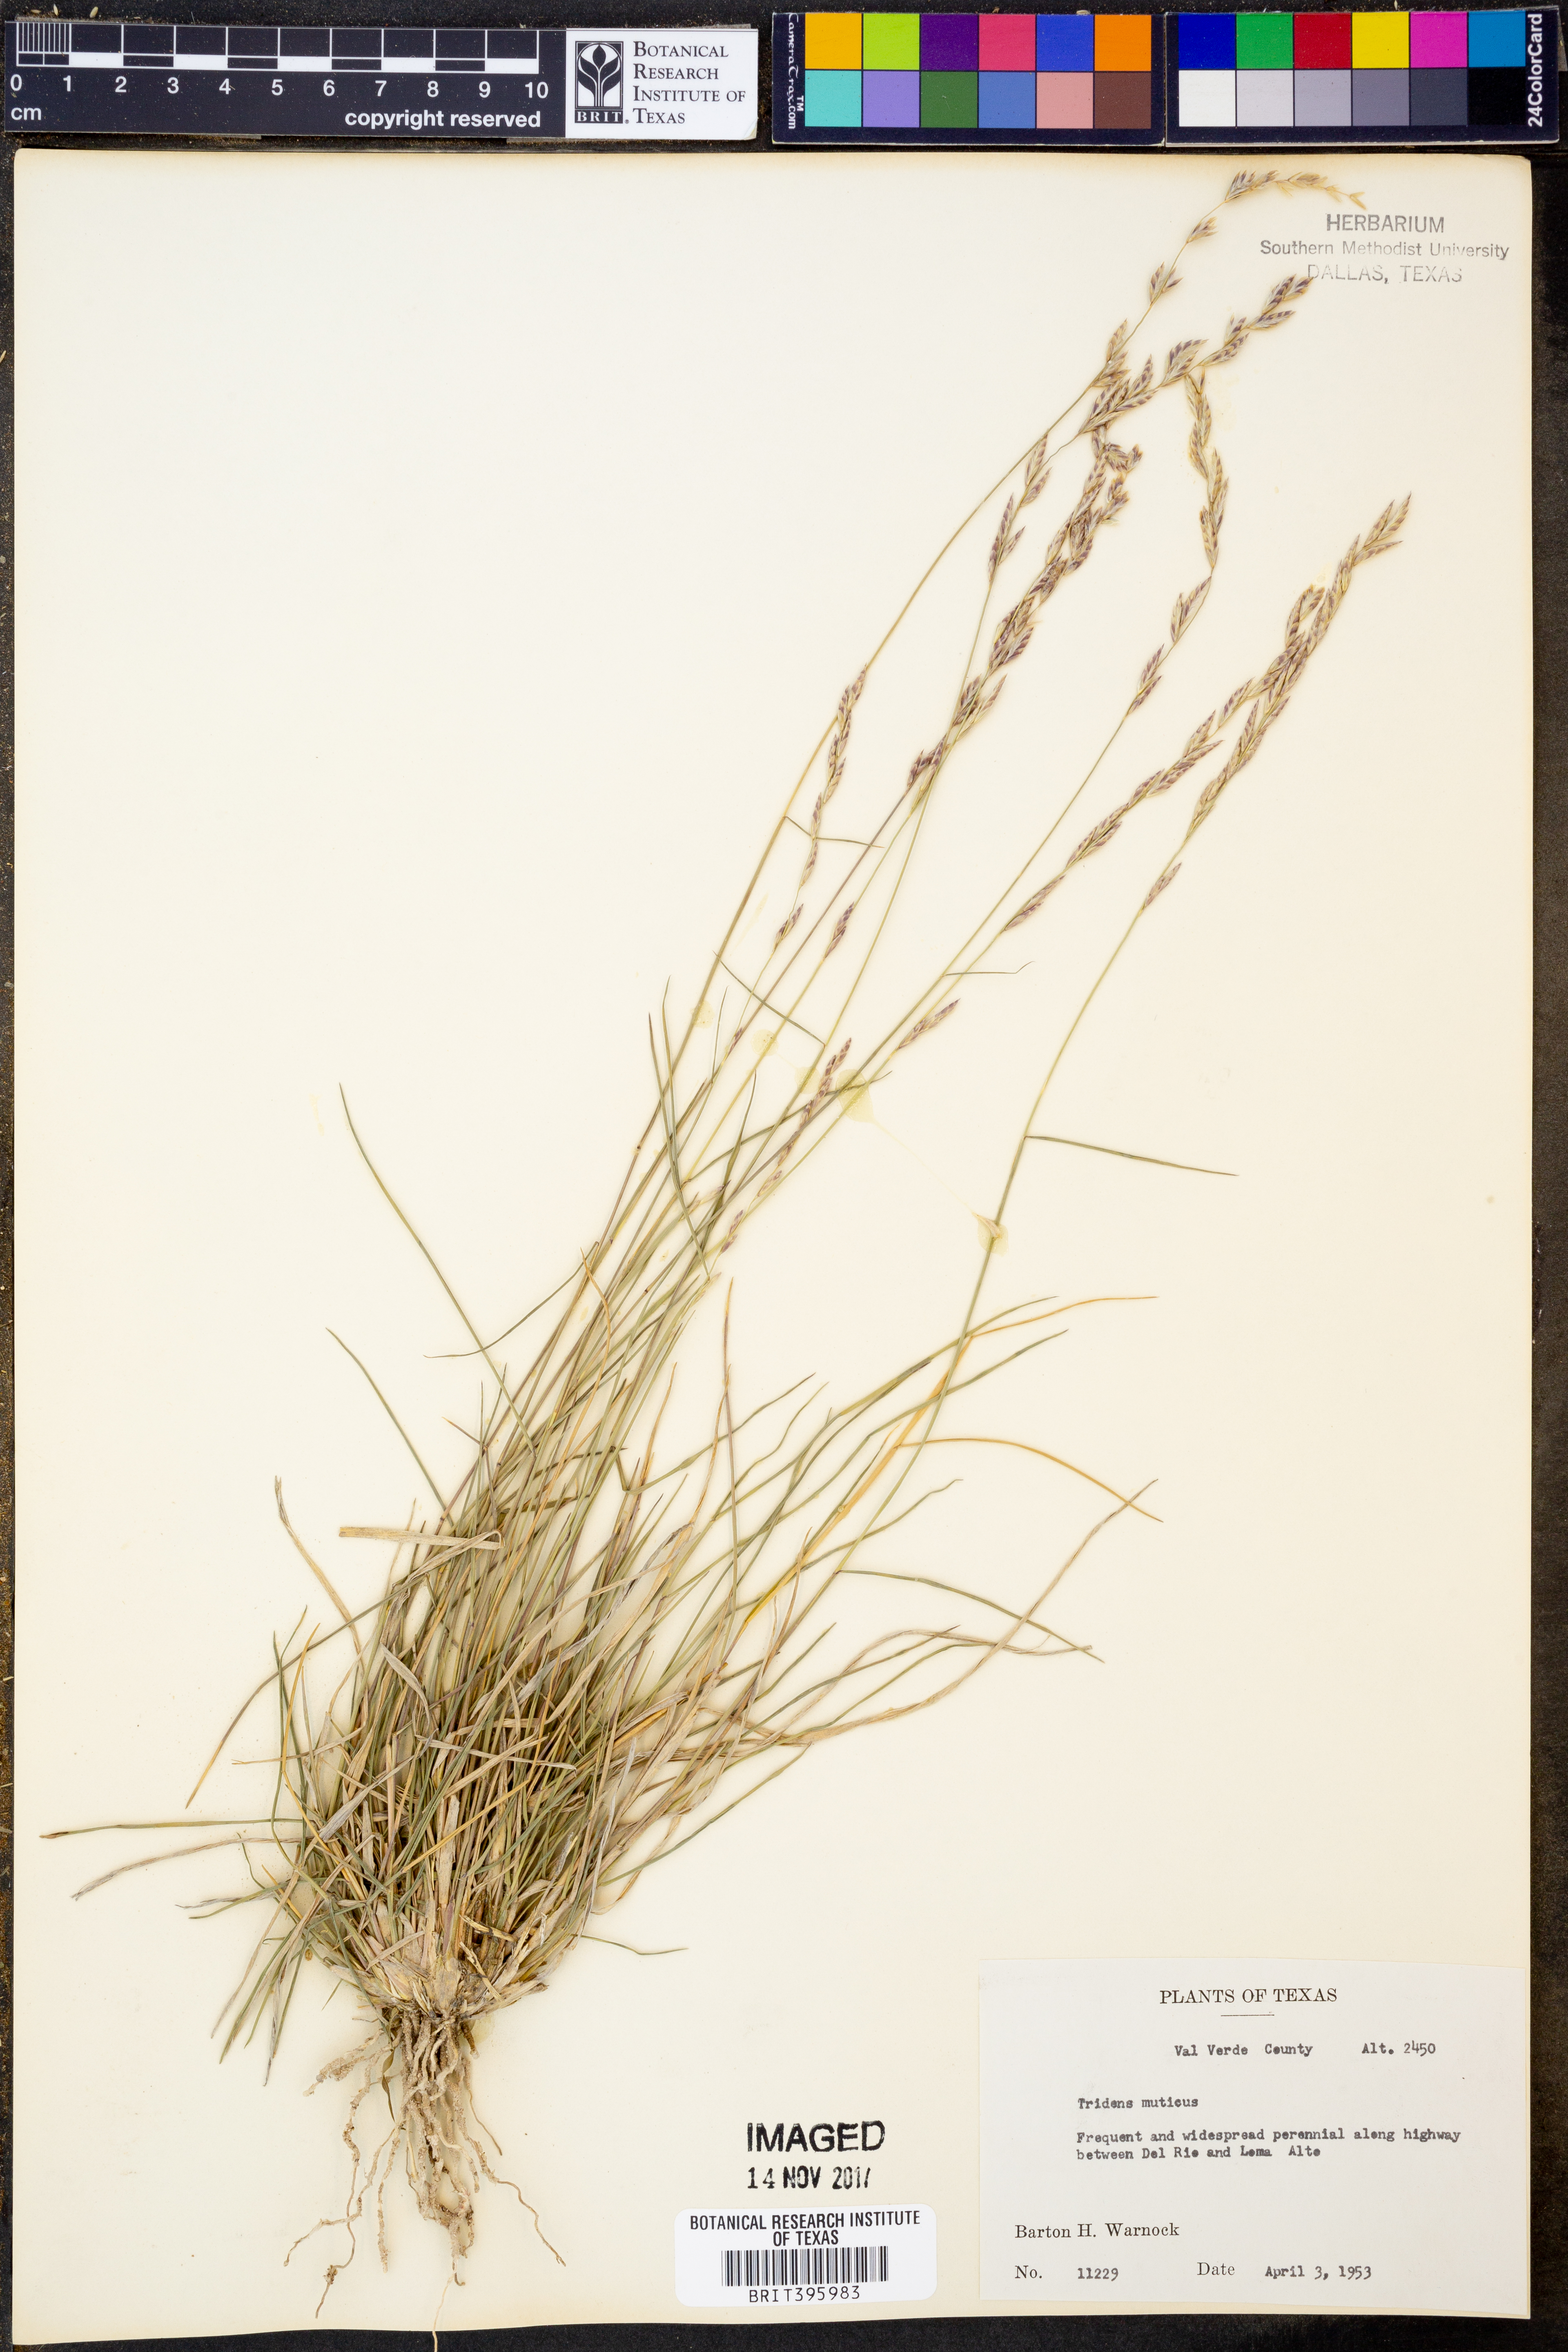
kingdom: Plantae
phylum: Tracheophyta
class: Liliopsida
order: Poales
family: Poaceae
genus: Tridentopsis
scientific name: Tridentopsis mutica
